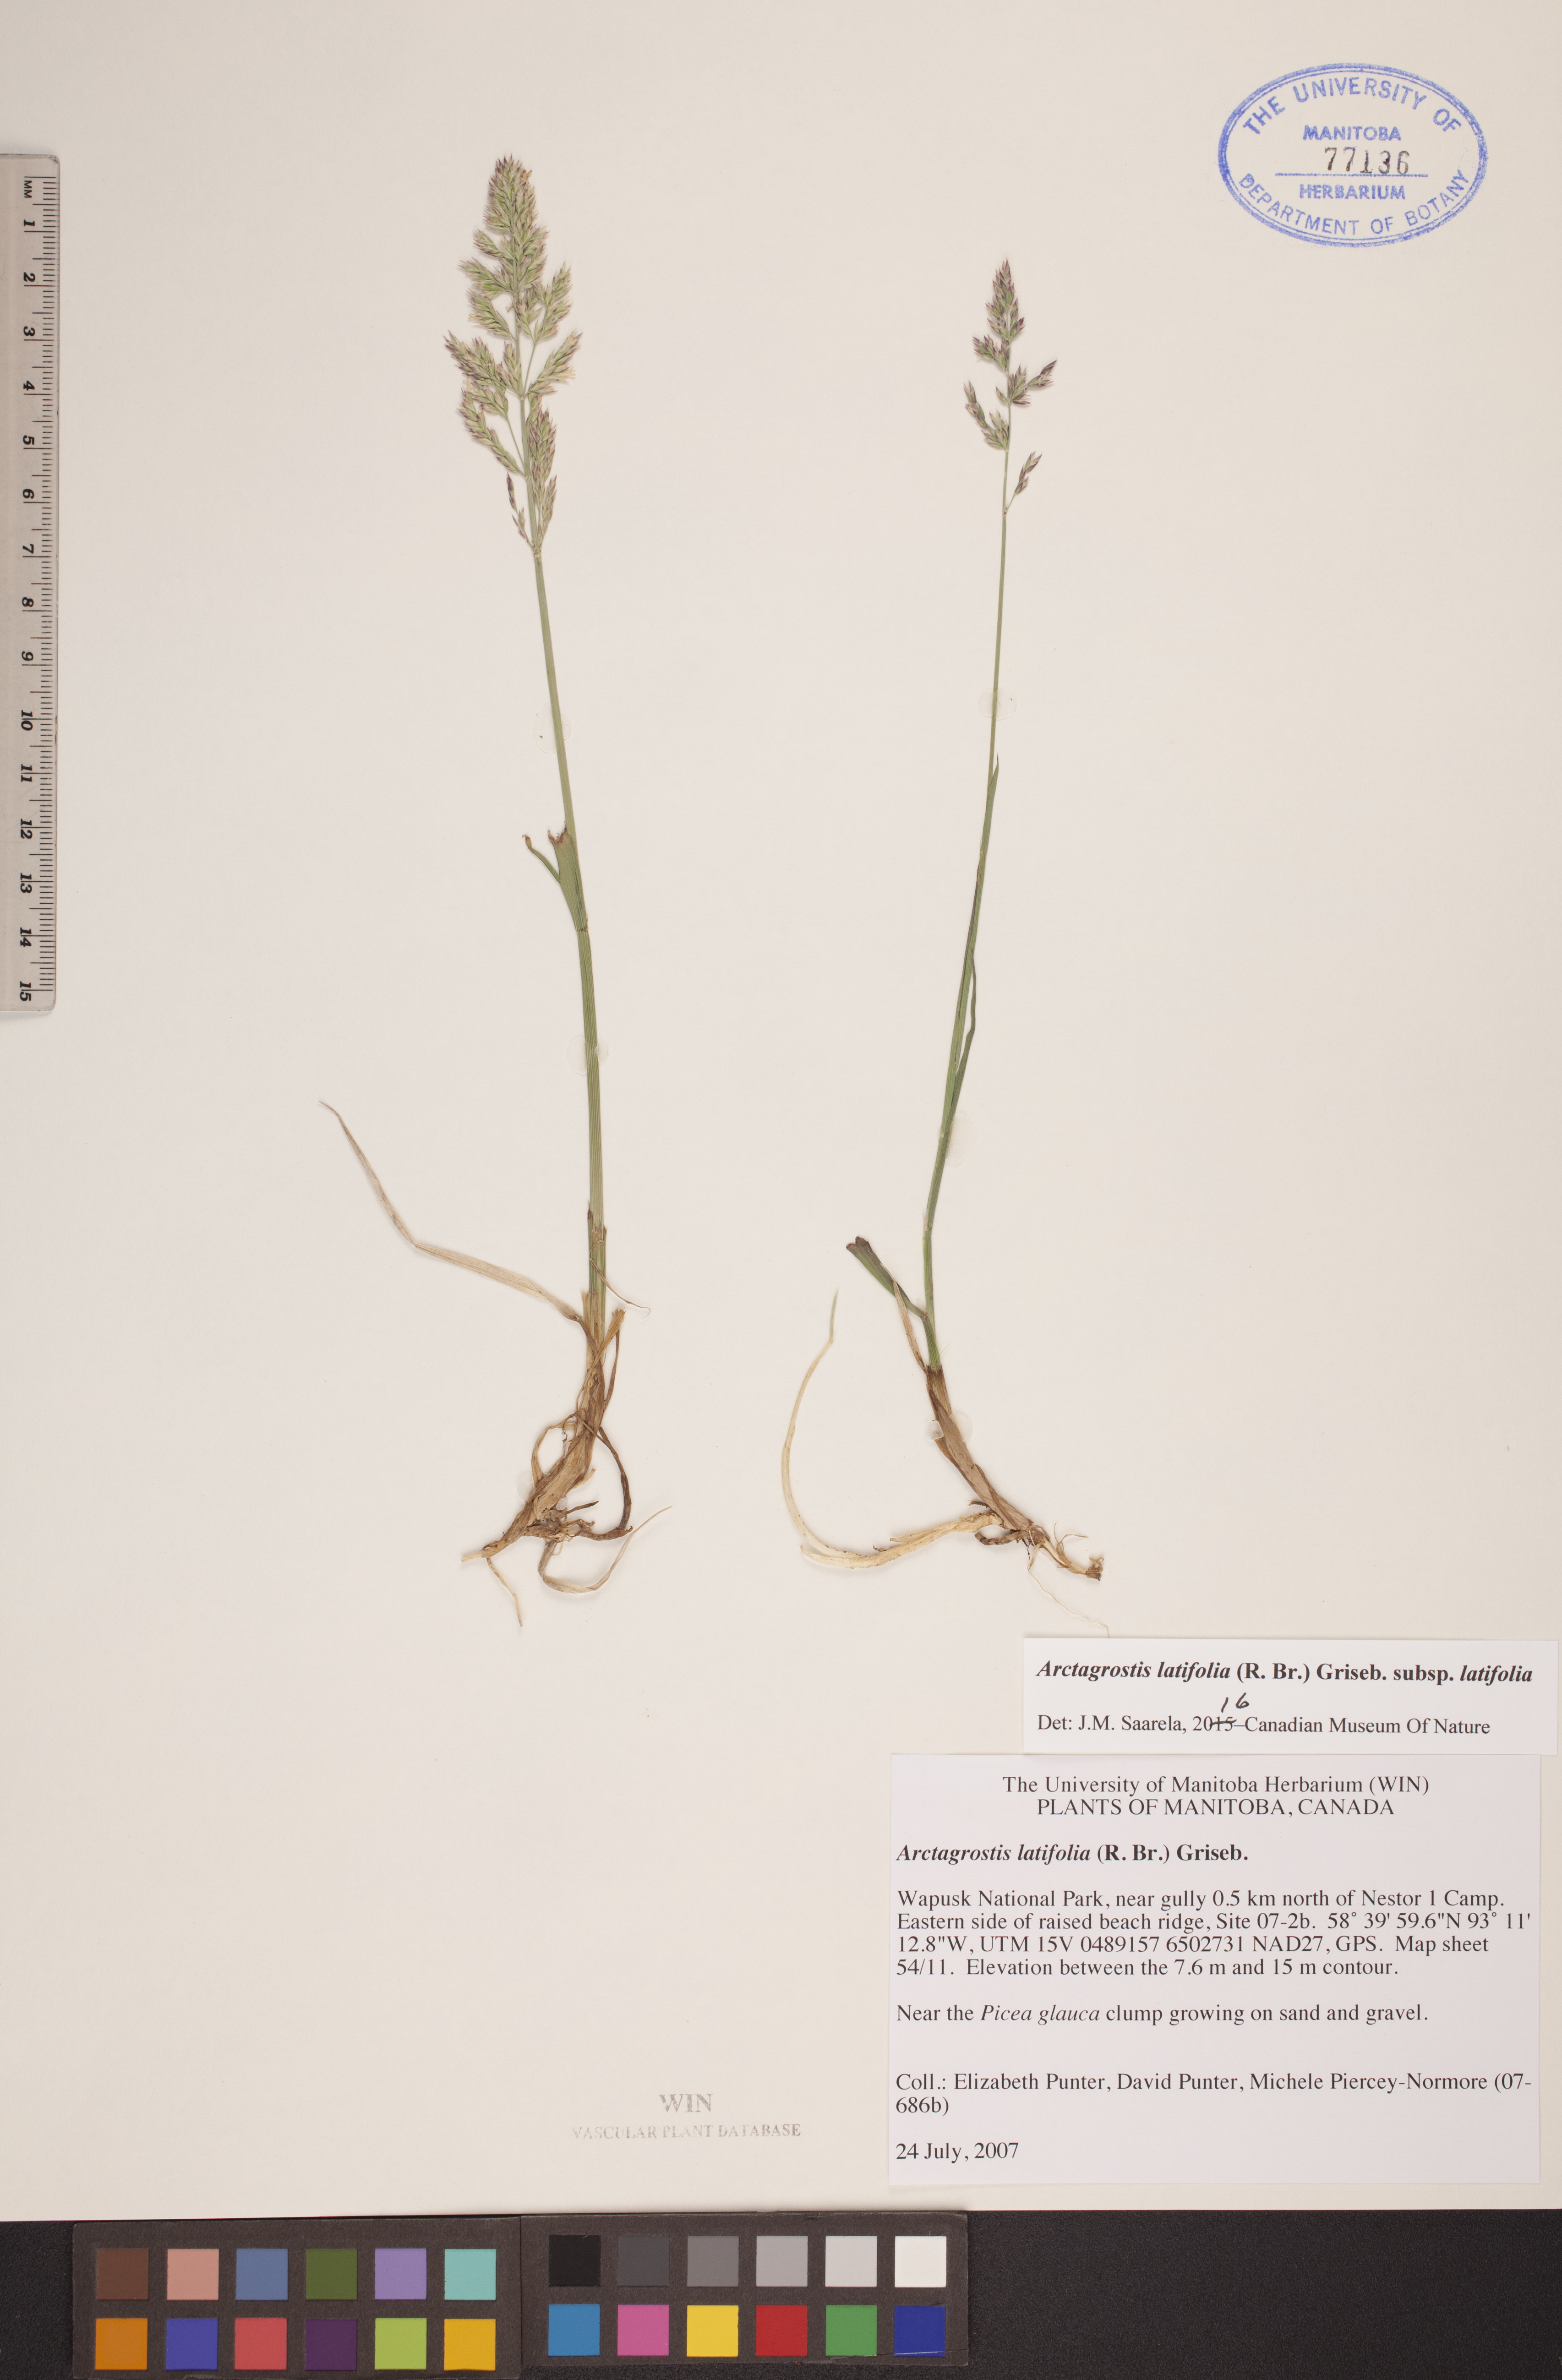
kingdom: Plantae
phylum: Tracheophyta
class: Liliopsida
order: Poales
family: Poaceae
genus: Arctagrostis
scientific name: Arctagrostis latifolia
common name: Arctic grass
